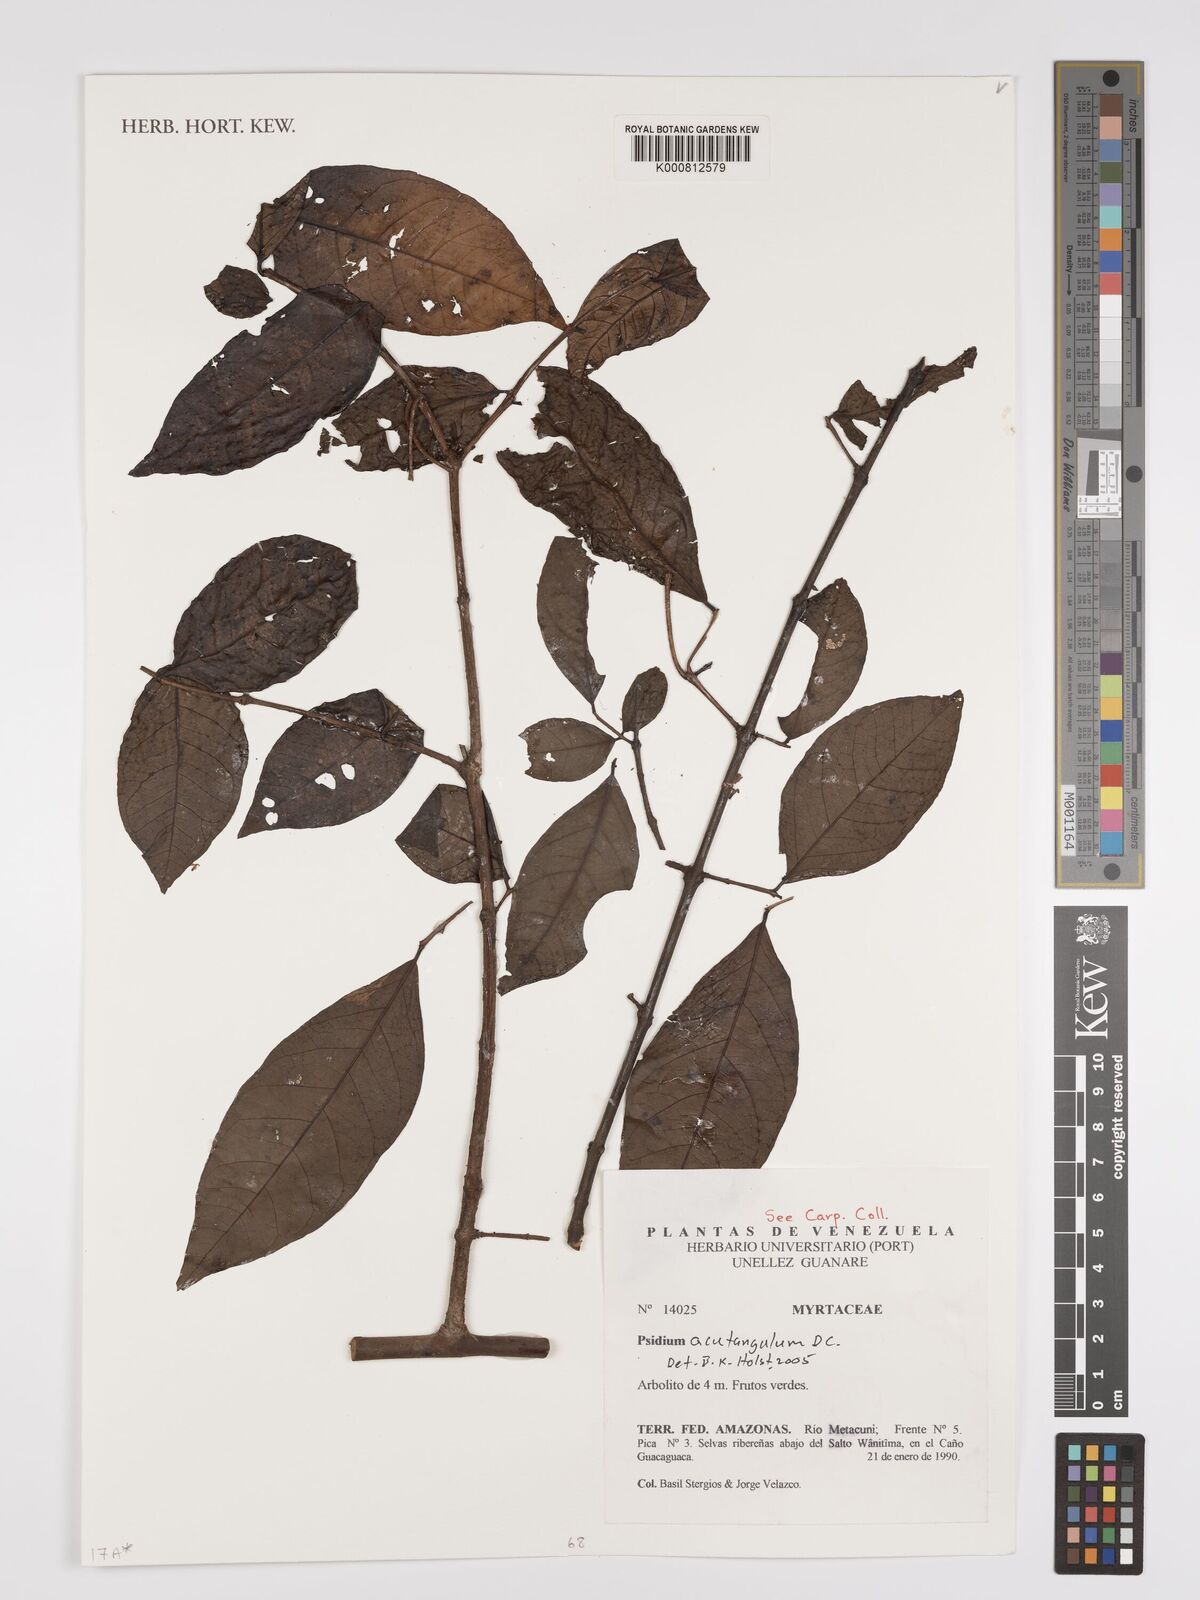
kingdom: Plantae
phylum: Tracheophyta
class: Magnoliopsida
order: Myrtales
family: Myrtaceae
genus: Psidium
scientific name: Psidium acutangulum
